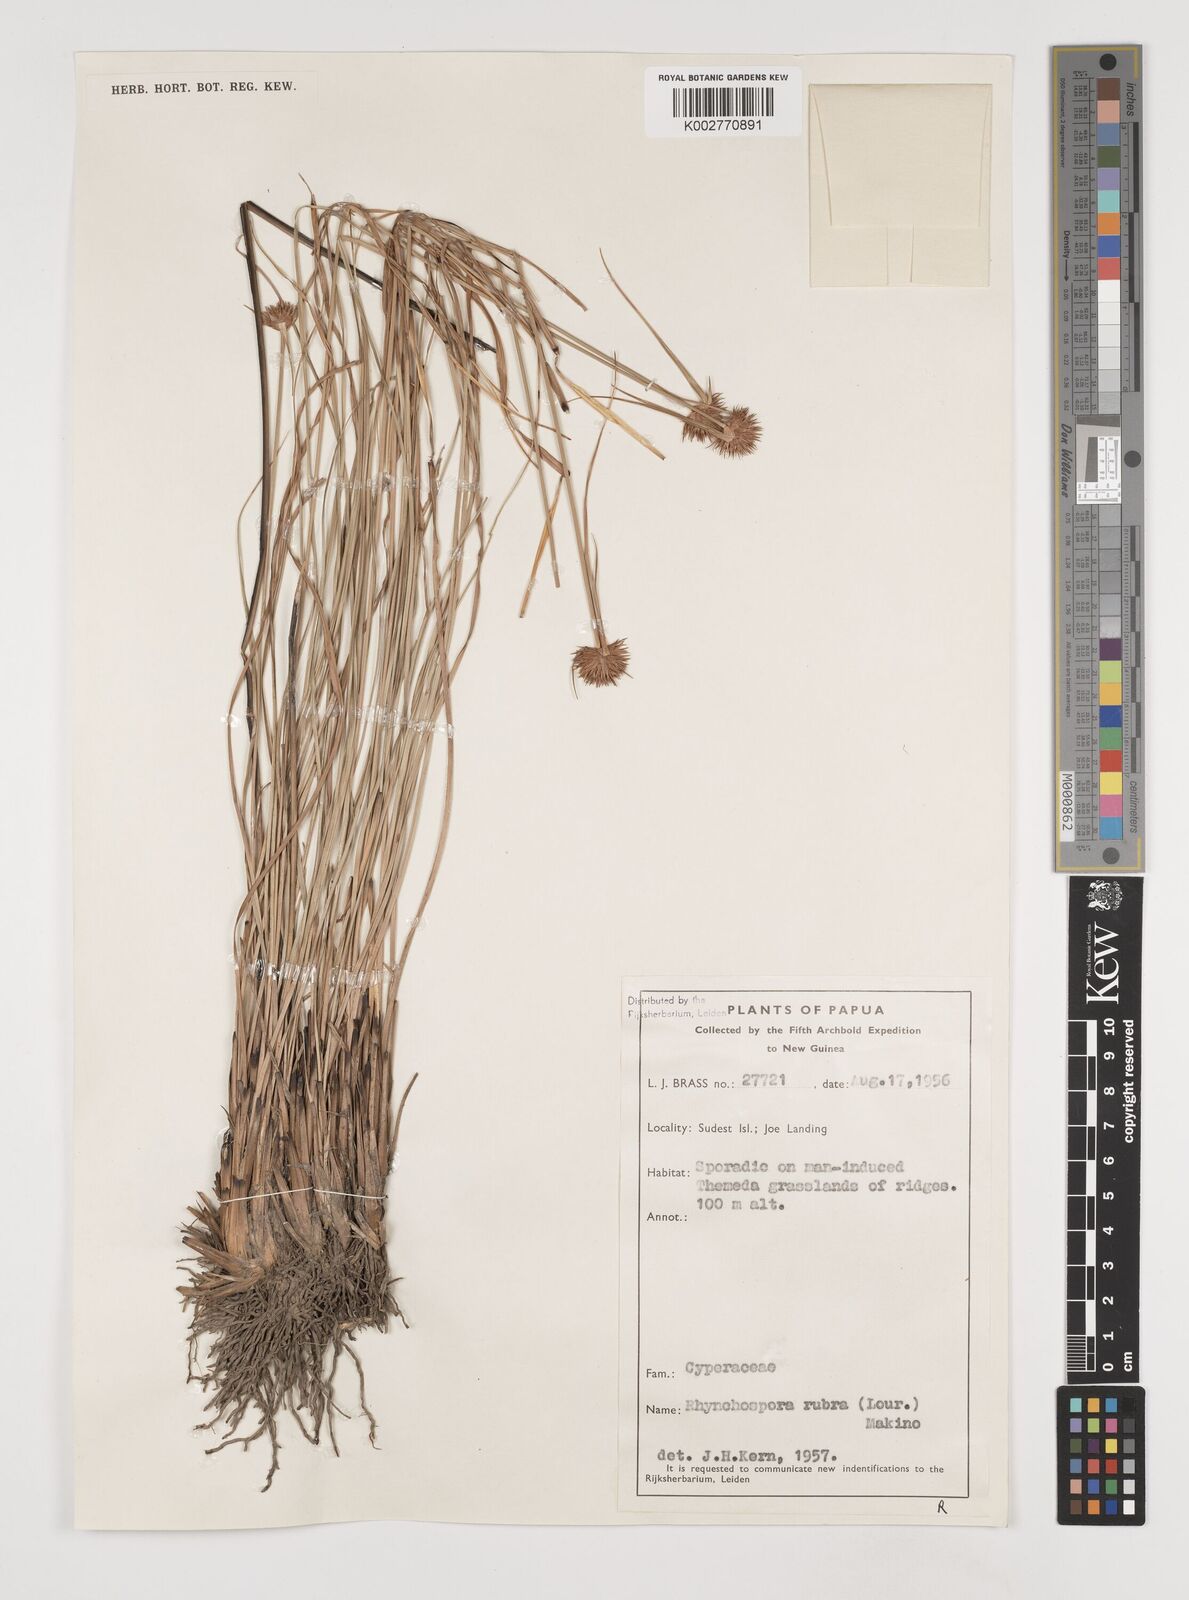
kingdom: Plantae
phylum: Tracheophyta
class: Liliopsida
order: Poales
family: Cyperaceae
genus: Rhynchospora
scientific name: Rhynchospora rubra
